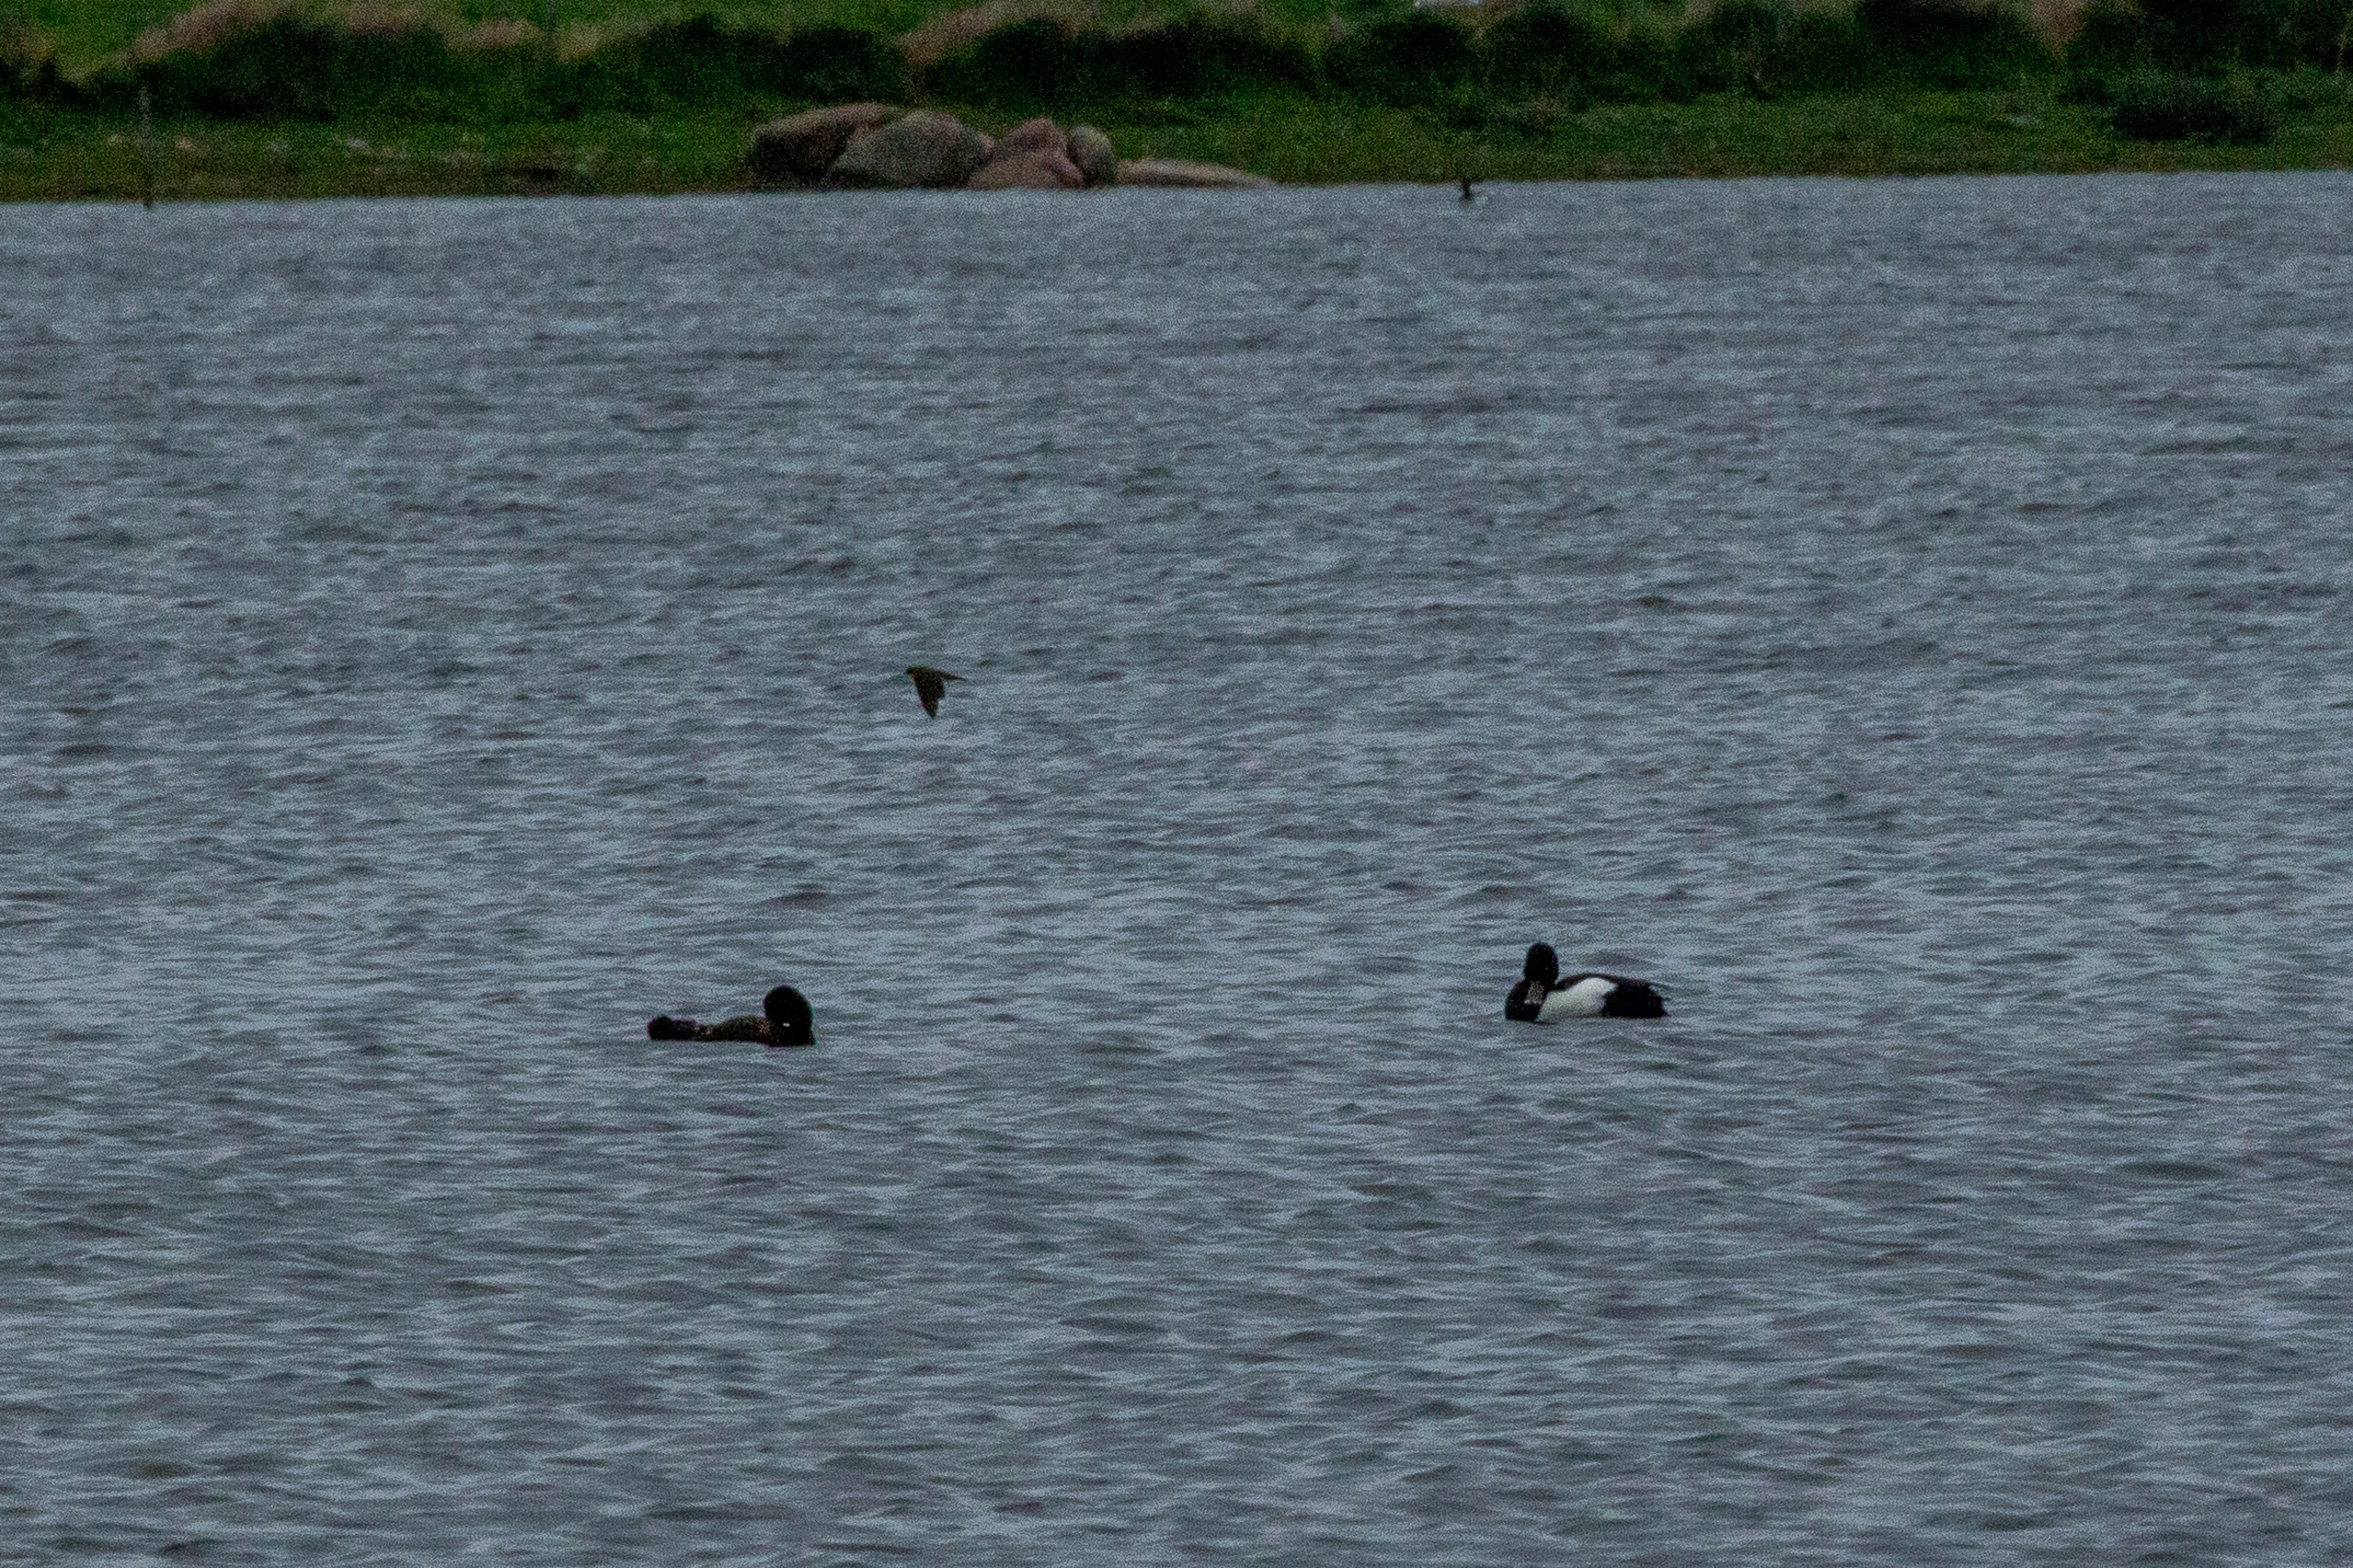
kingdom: Animalia
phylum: Chordata
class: Aves
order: Anseriformes
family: Anatidae
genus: Aythya
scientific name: Aythya fuligula
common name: Troldand
